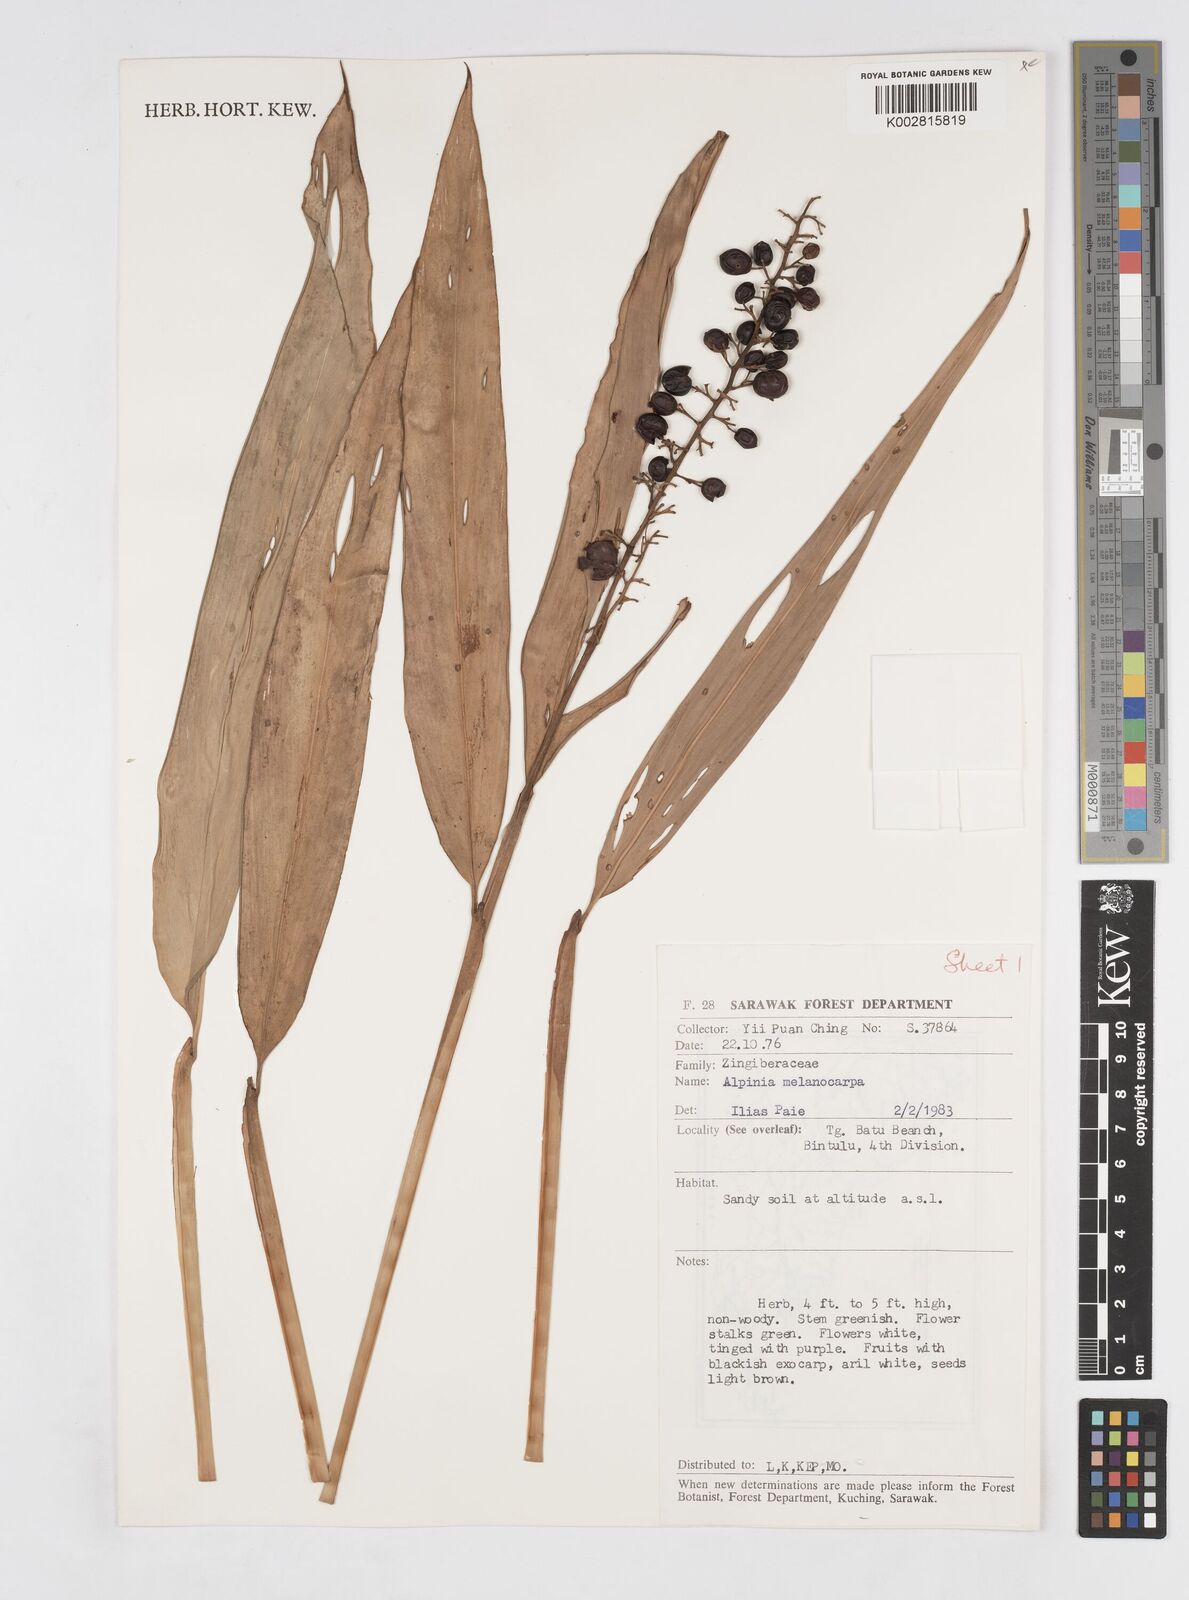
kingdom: Plantae
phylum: Tracheophyta
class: Liliopsida
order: Zingiberales
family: Zingiberaceae
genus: Alpinia
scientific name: Alpinia aquatica
